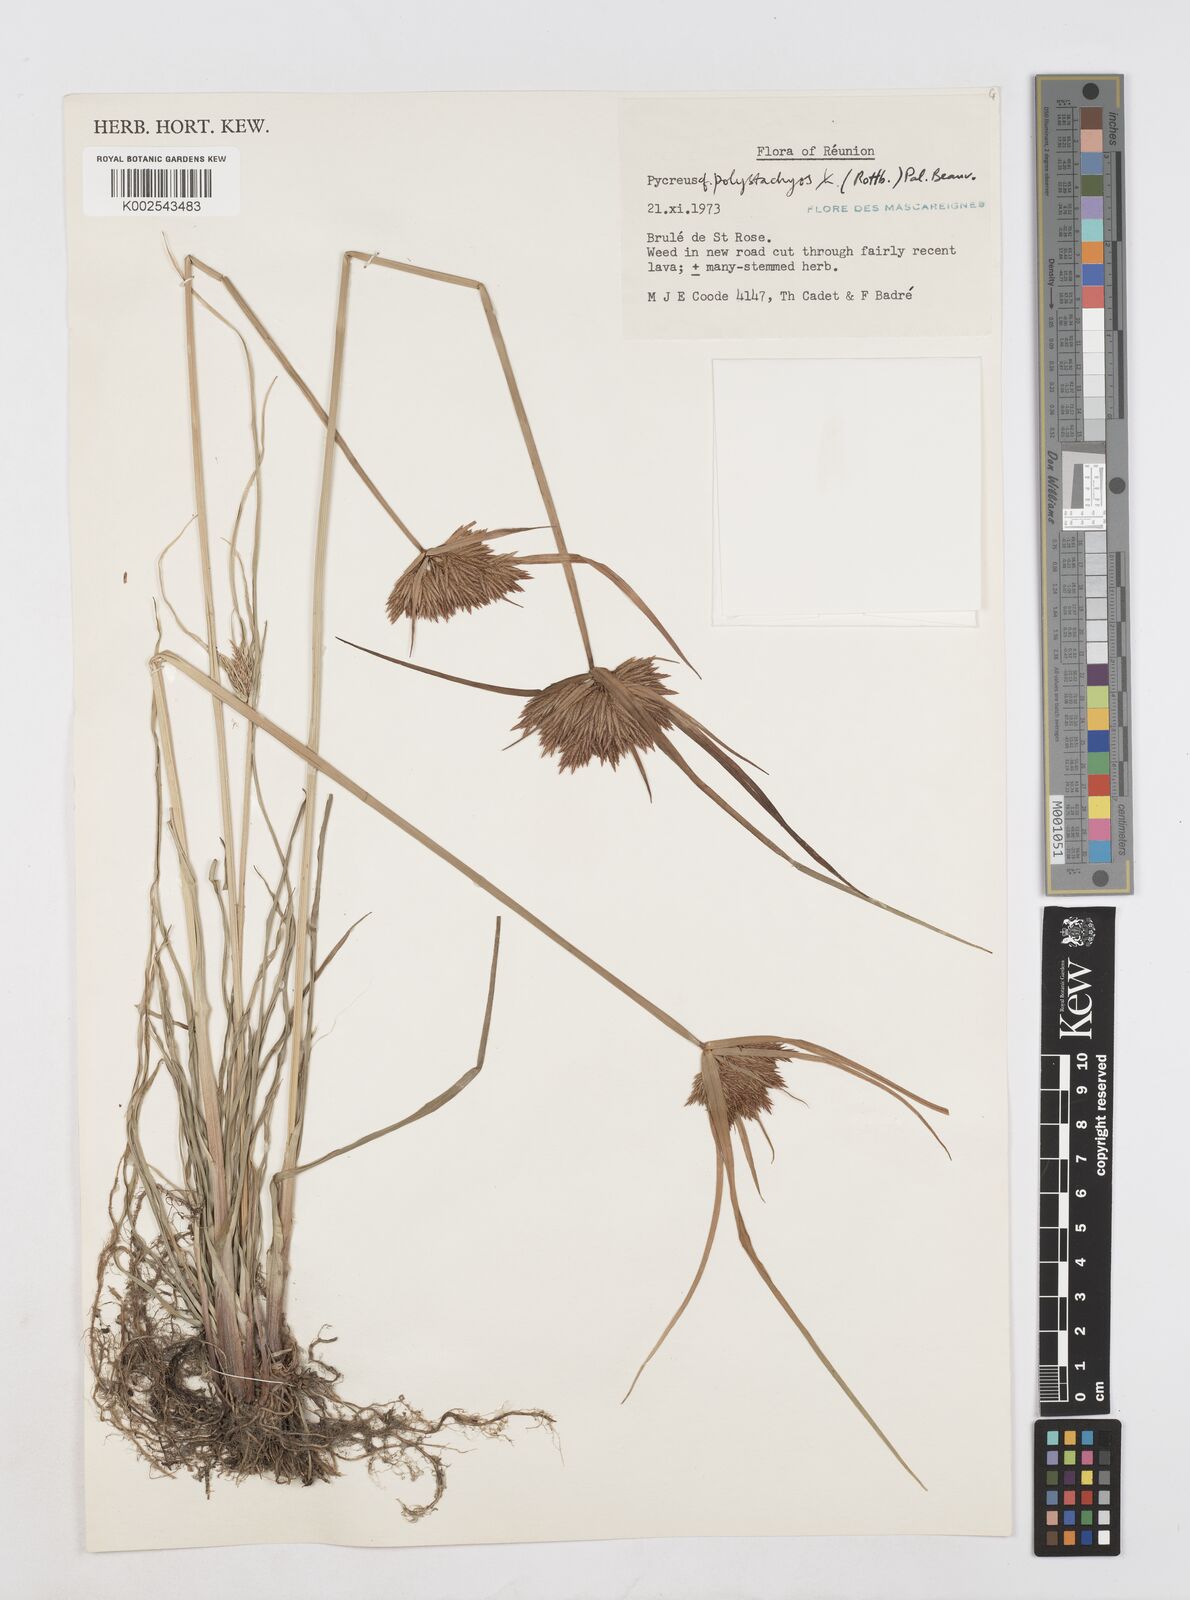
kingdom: Plantae
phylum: Tracheophyta
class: Liliopsida
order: Poales
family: Cyperaceae
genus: Cyperus
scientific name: Cyperus polystachyos
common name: Bunchy flat sedge
